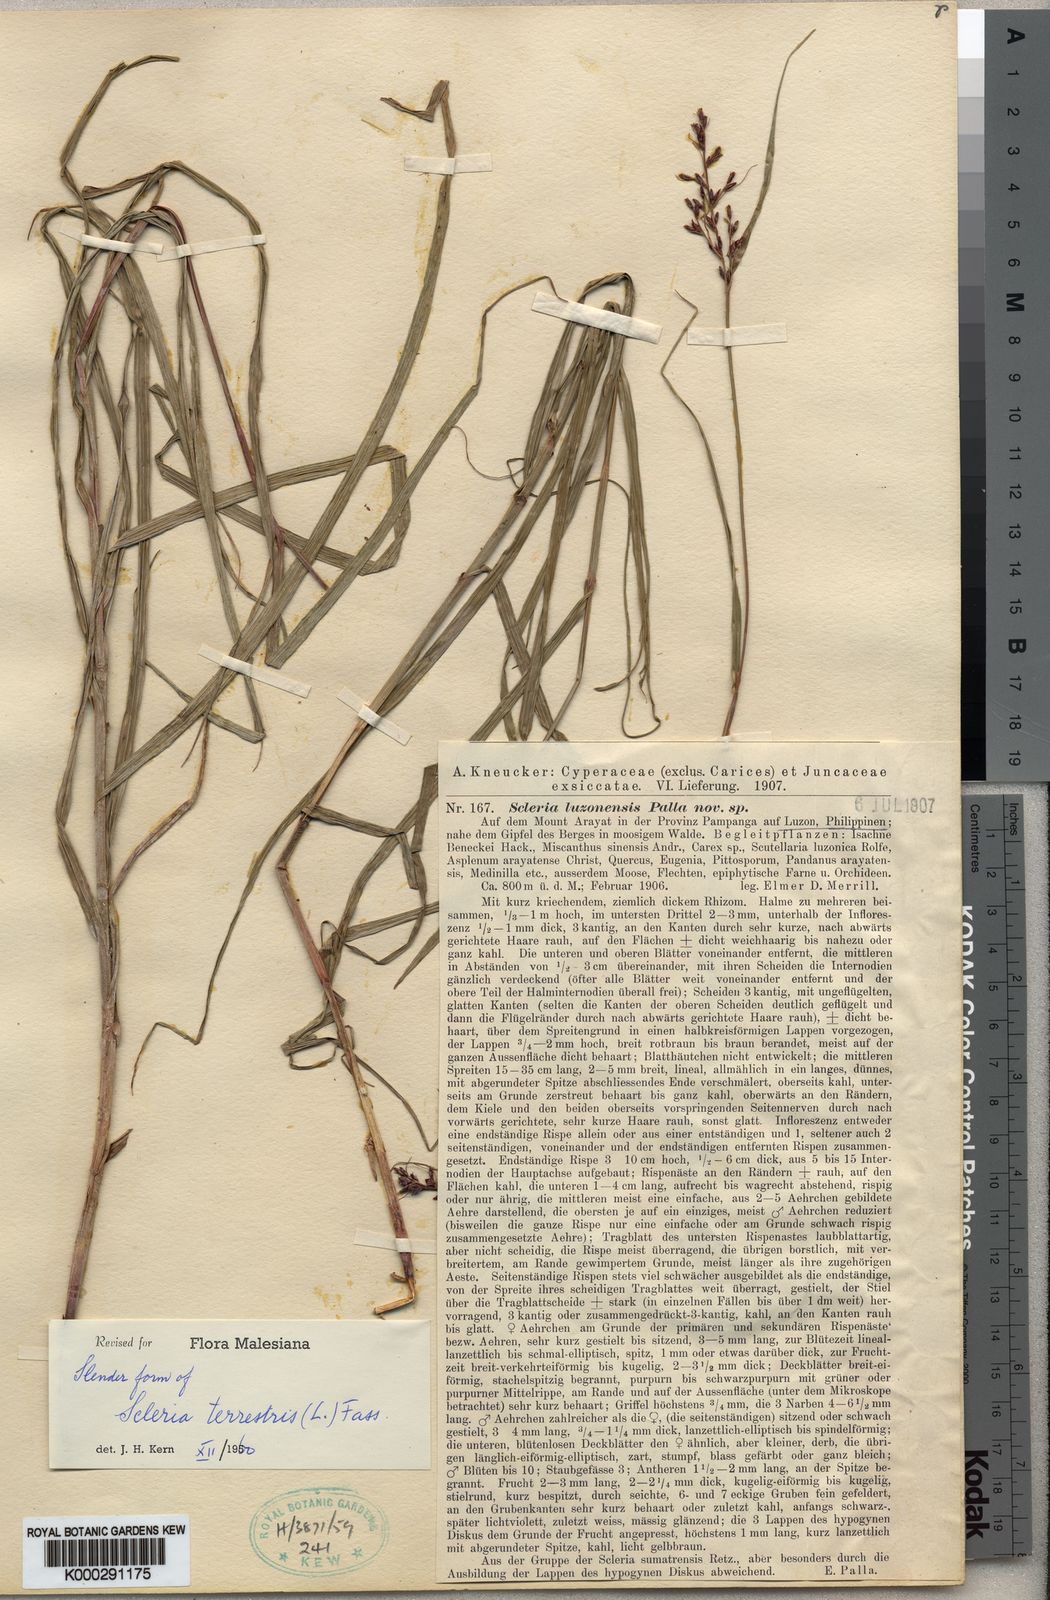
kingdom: Plantae
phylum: Tracheophyta
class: Liliopsida
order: Poales
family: Cyperaceae
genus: Scleria
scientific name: Scleria terrestris
